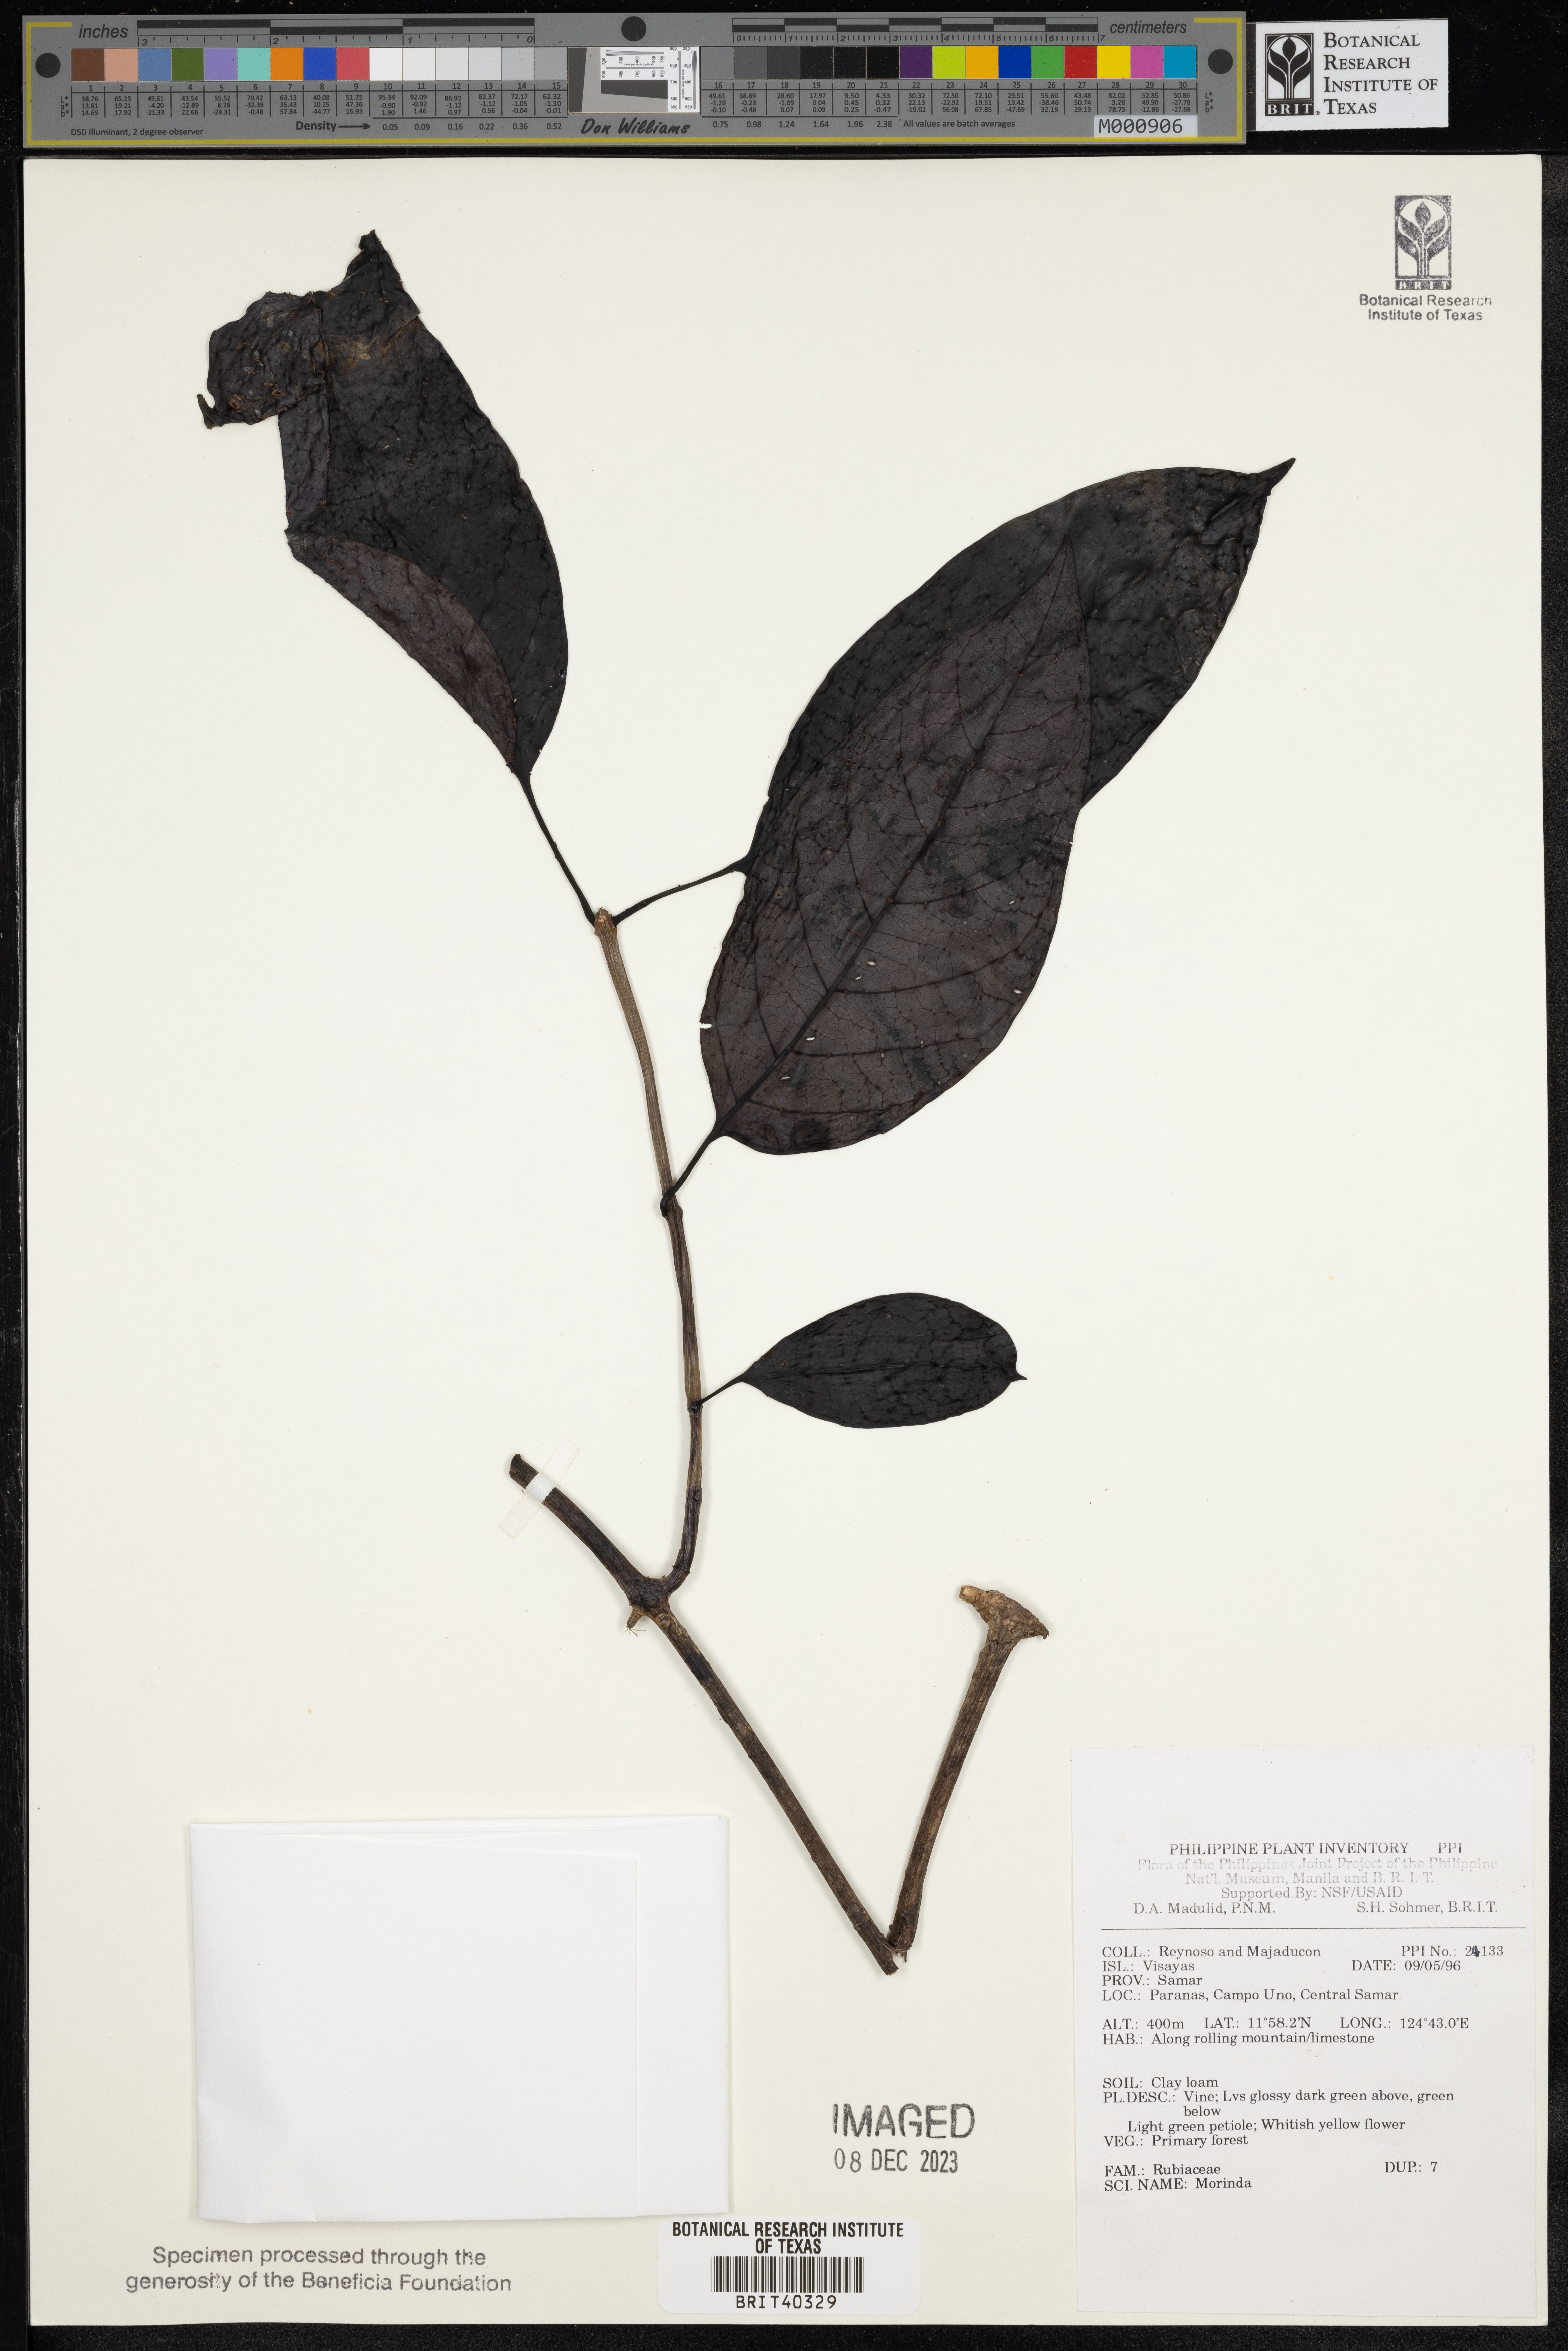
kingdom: Plantae
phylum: Tracheophyta
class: Magnoliopsida
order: Gentianales
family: Rubiaceae
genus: Morinda
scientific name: Morinda
